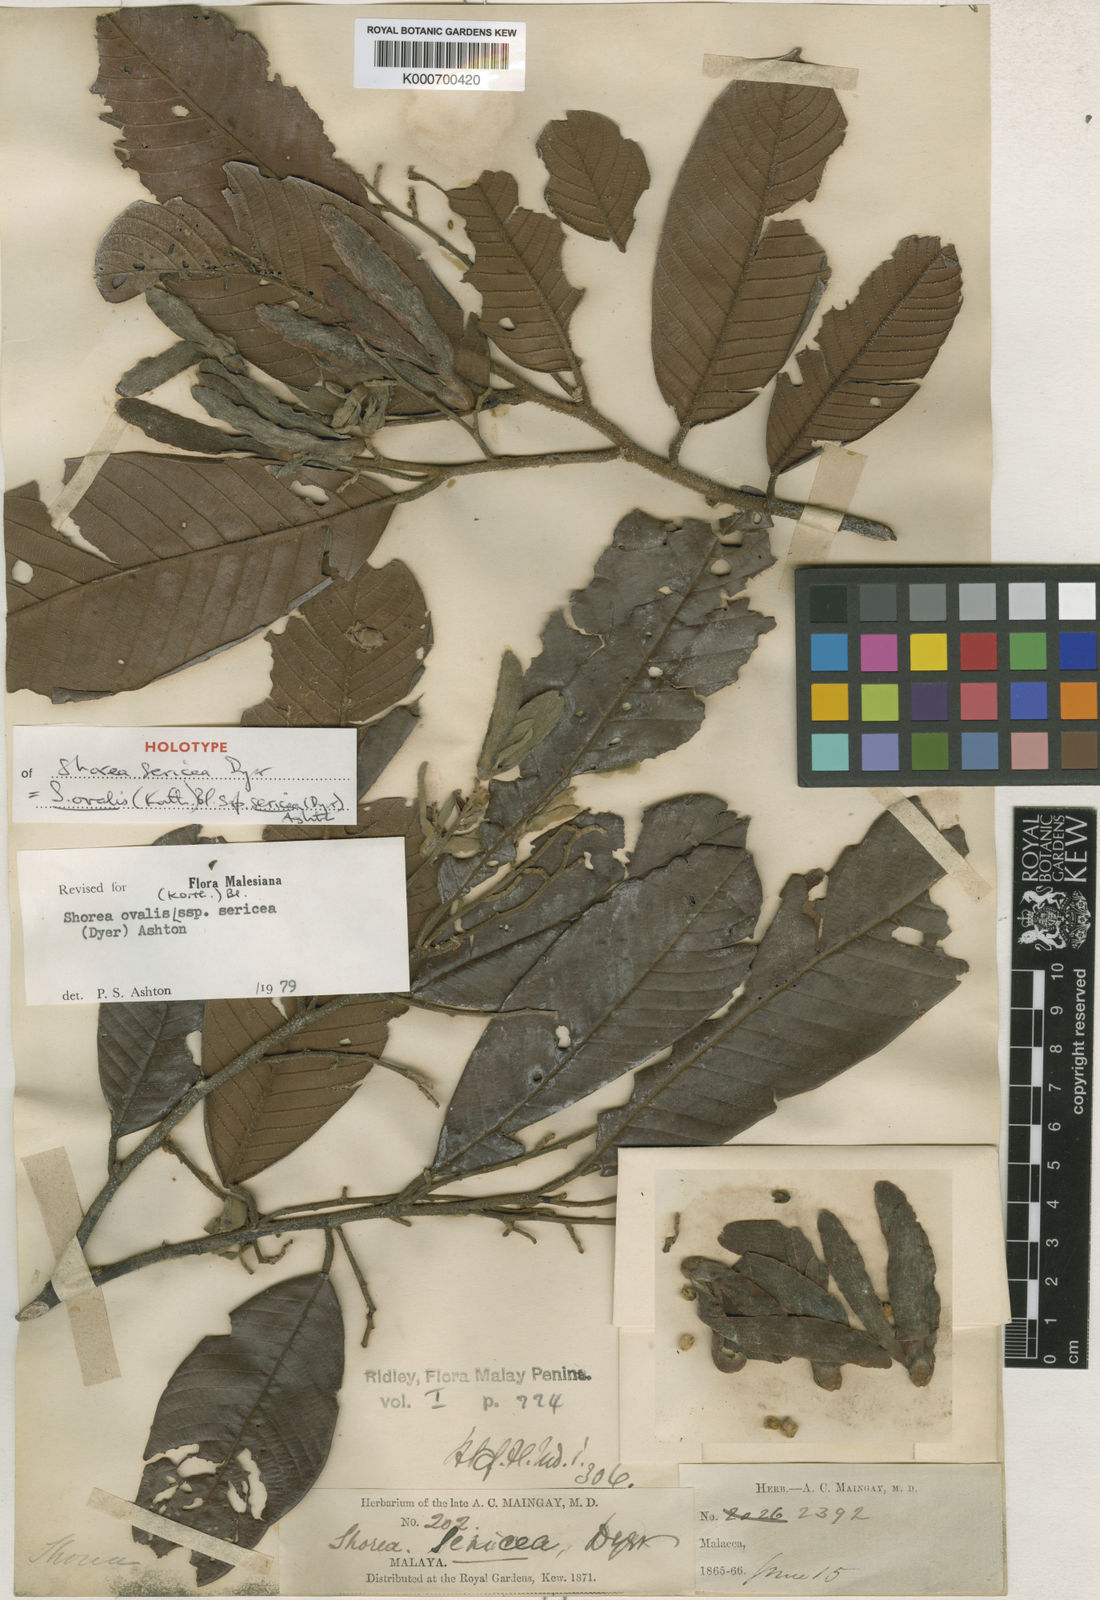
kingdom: Plantae
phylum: Tracheophyta
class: Magnoliopsida
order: Malvales
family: Dipterocarpaceae
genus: Shorea
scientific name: Shorea ovalis
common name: Light red meranti
